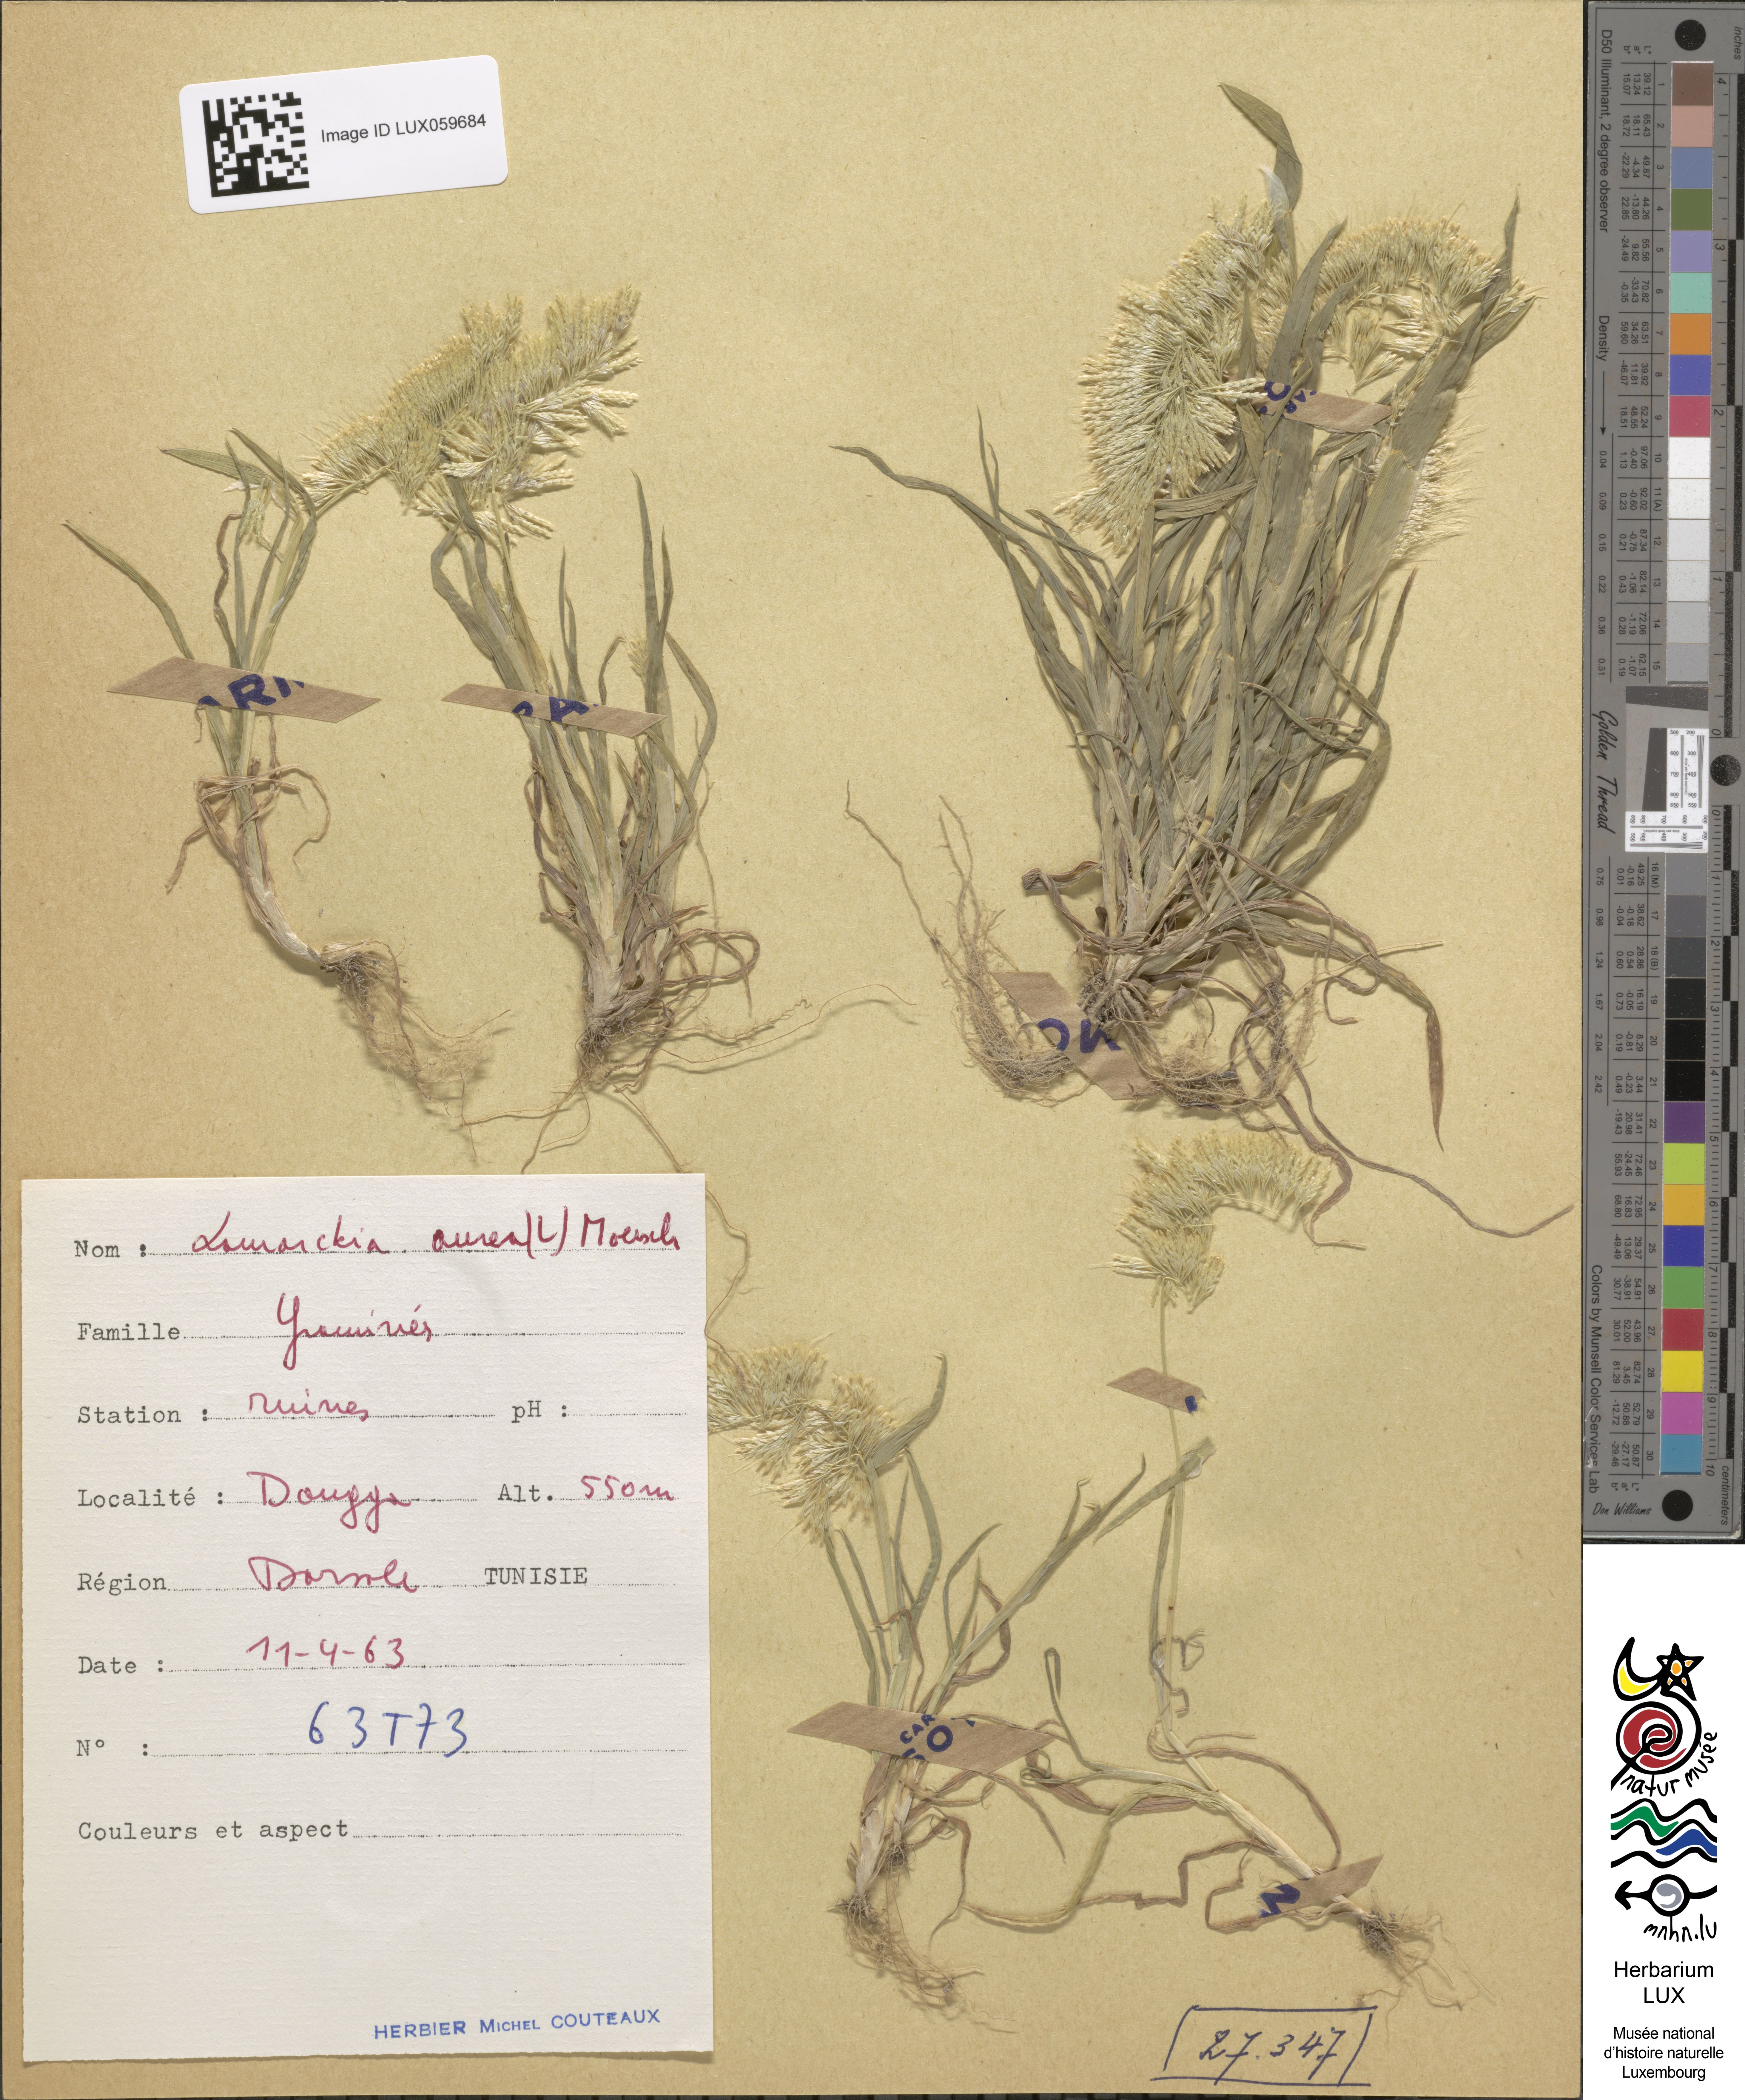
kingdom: Plantae
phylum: Tracheophyta
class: Liliopsida
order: Poales
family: Poaceae
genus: Lamarckia
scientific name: Lamarckia aurea
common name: Golden dog's-tail
